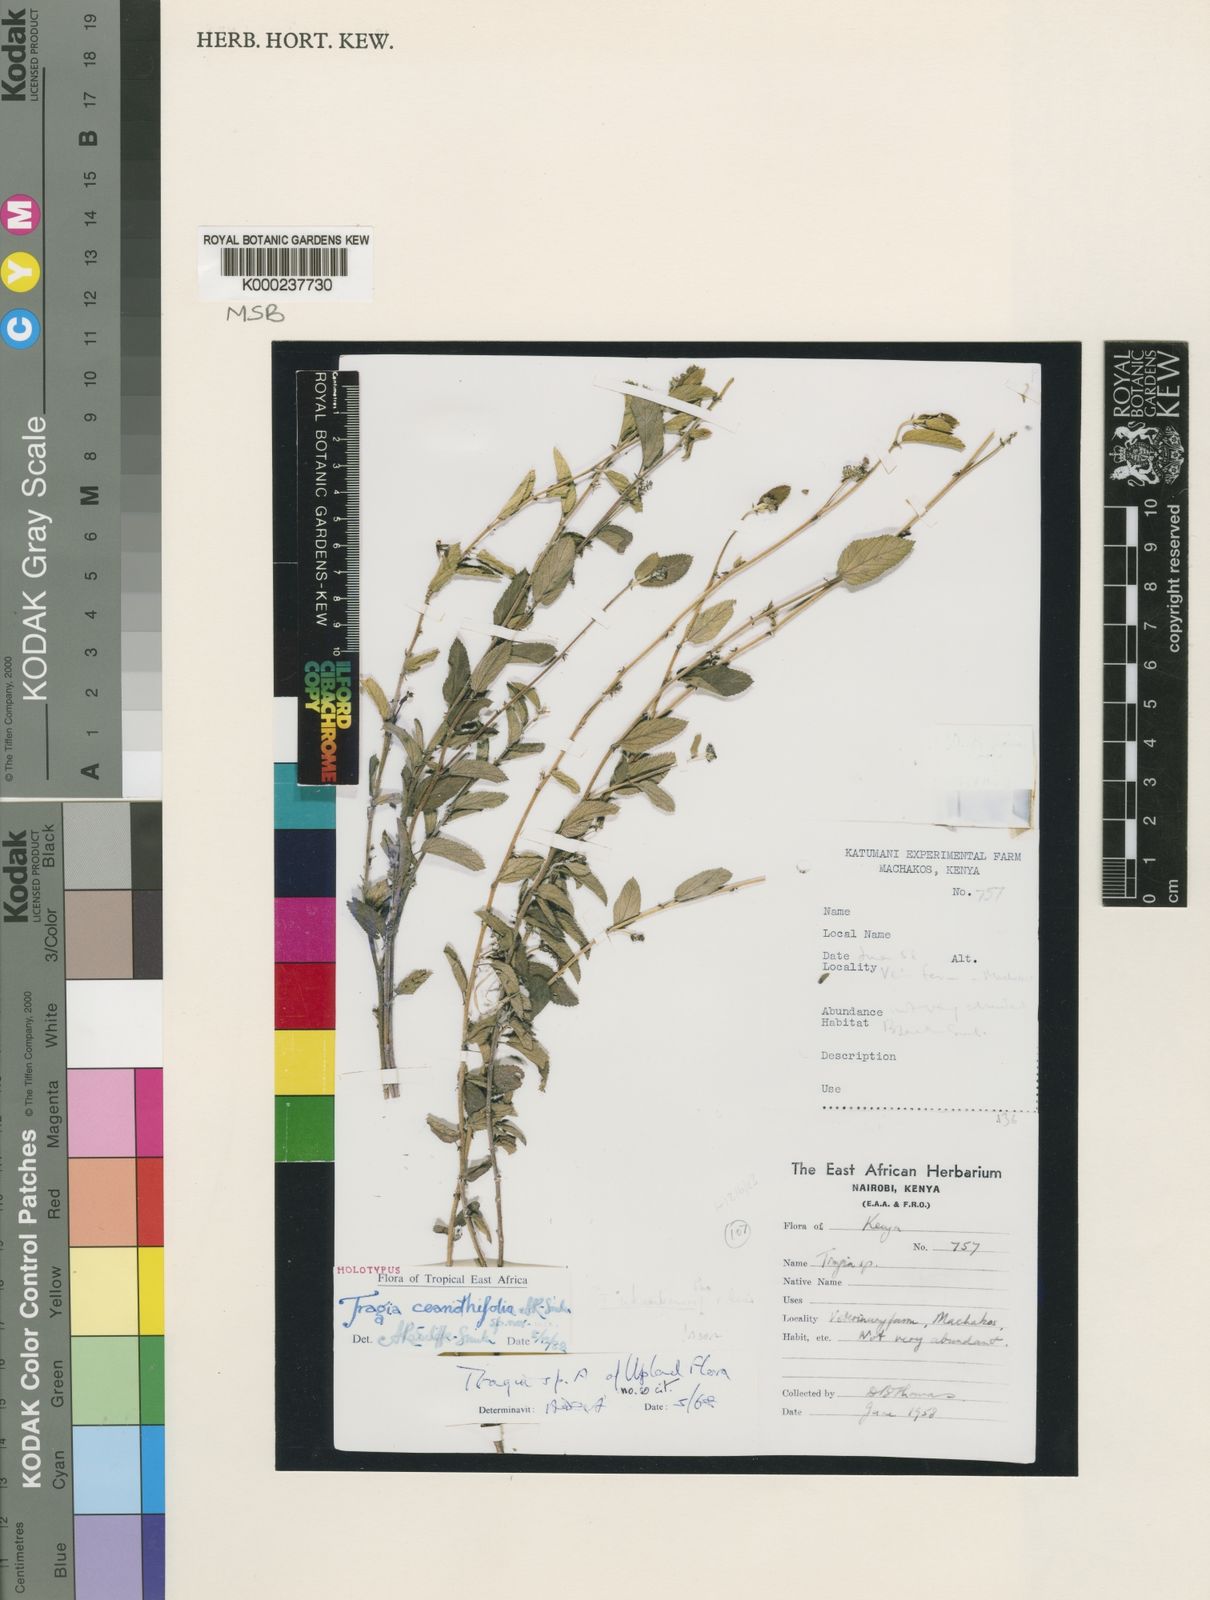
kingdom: Plantae
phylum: Tracheophyta
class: Magnoliopsida
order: Malpighiales
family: Euphorbiaceae
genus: Tragia
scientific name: Tragia
